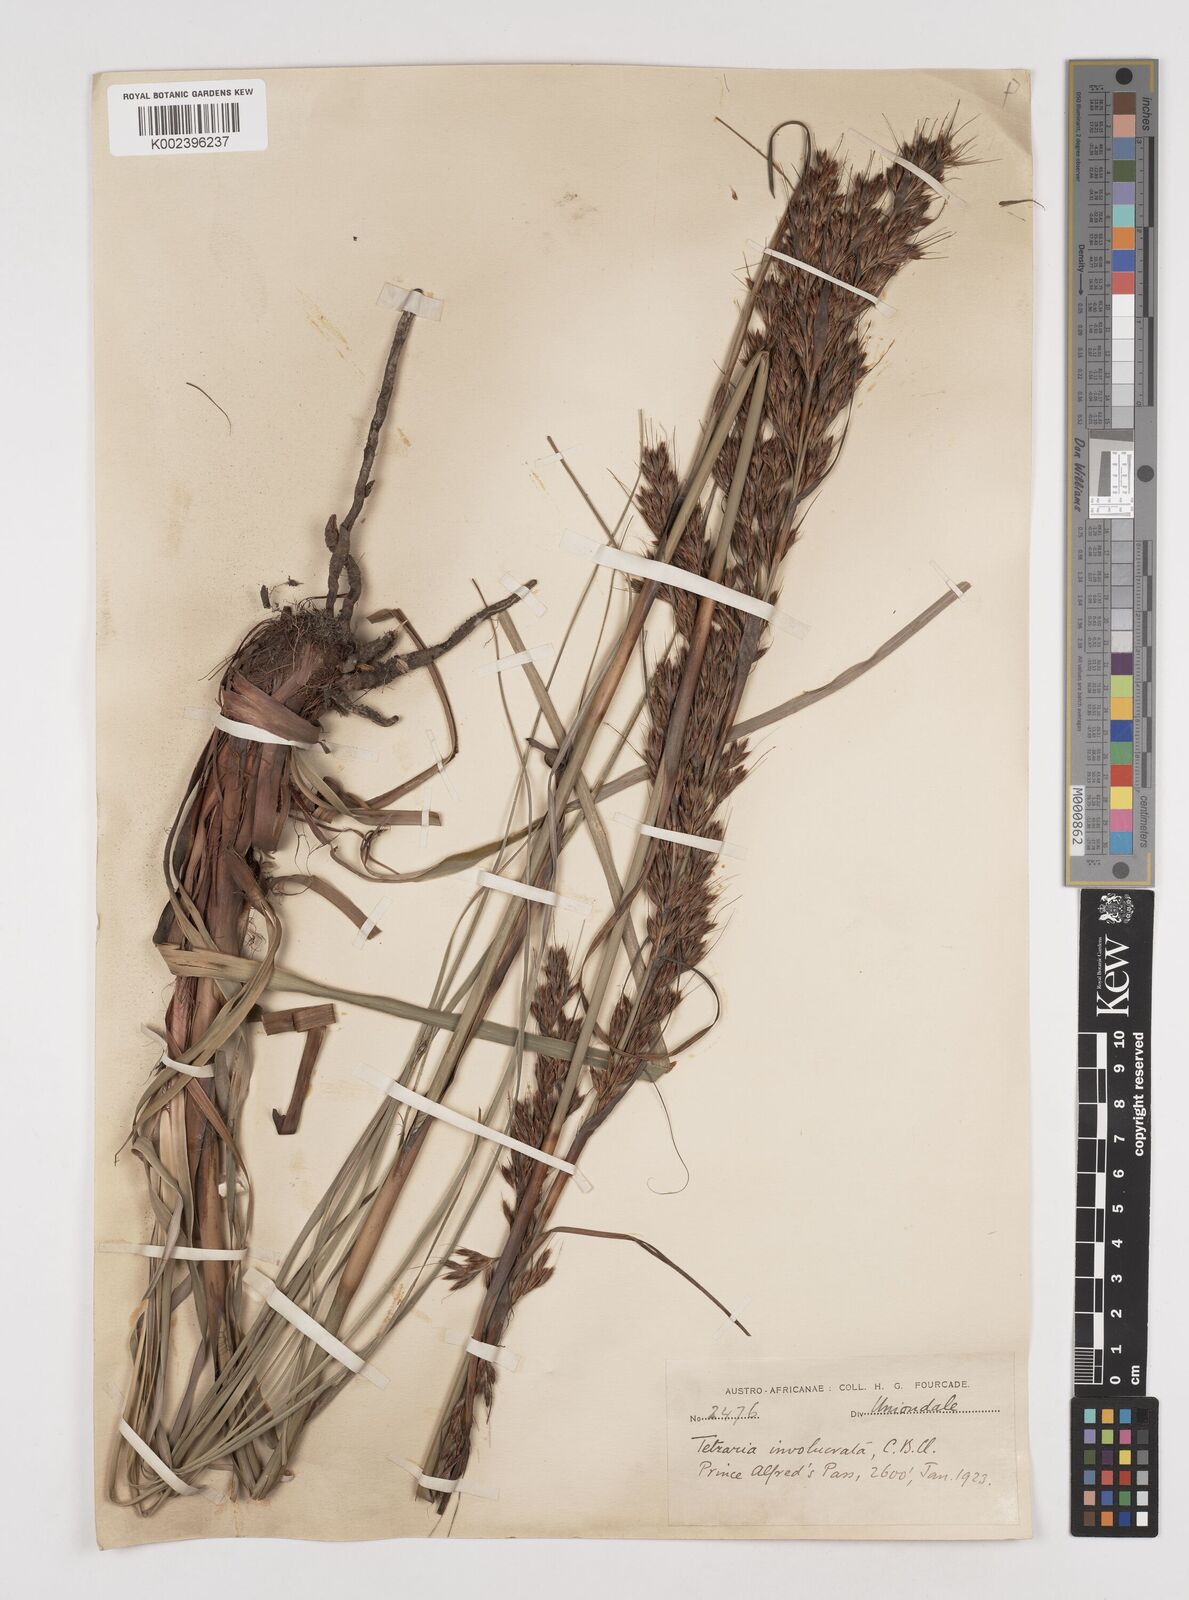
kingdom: Plantae
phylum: Tracheophyta
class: Liliopsida
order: Poales
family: Cyperaceae
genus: Tetraria
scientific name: Tetraria involucrata
